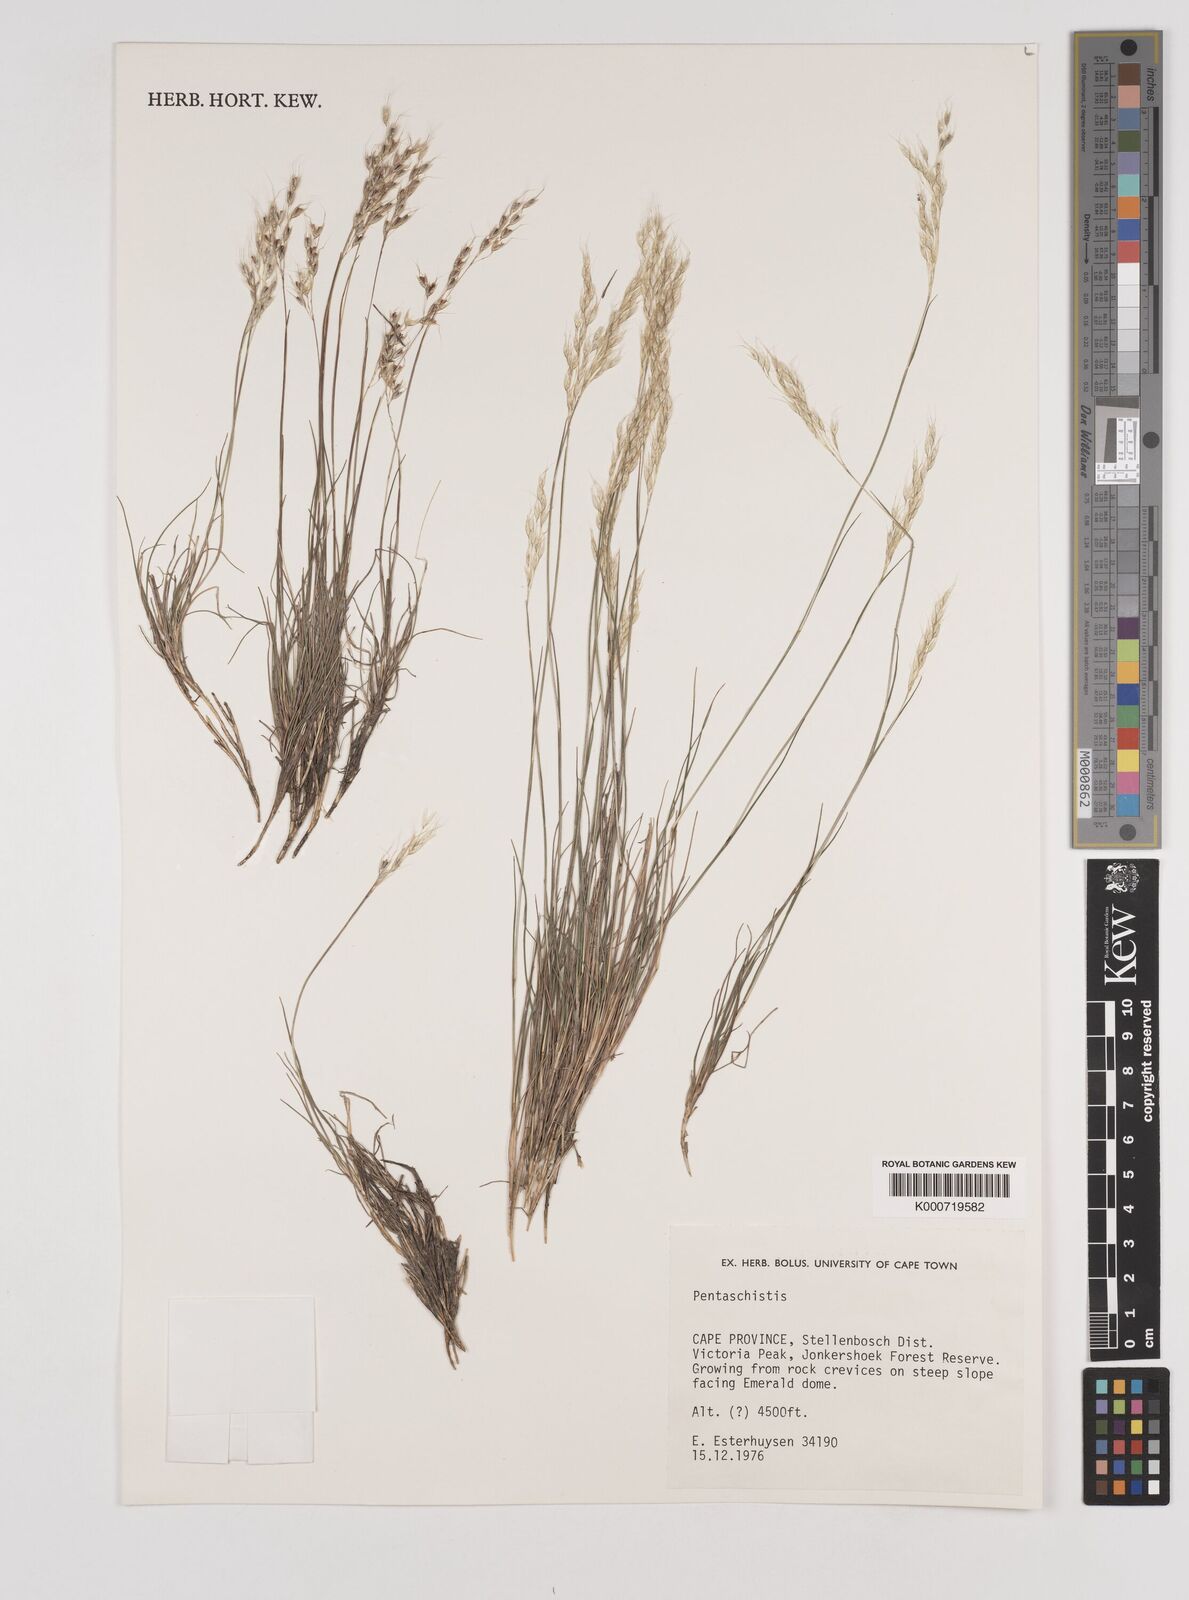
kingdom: Plantae
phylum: Tracheophyta
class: Liliopsida
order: Poales
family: Poaceae
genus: Pentameris
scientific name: Pentameris rigidissima
